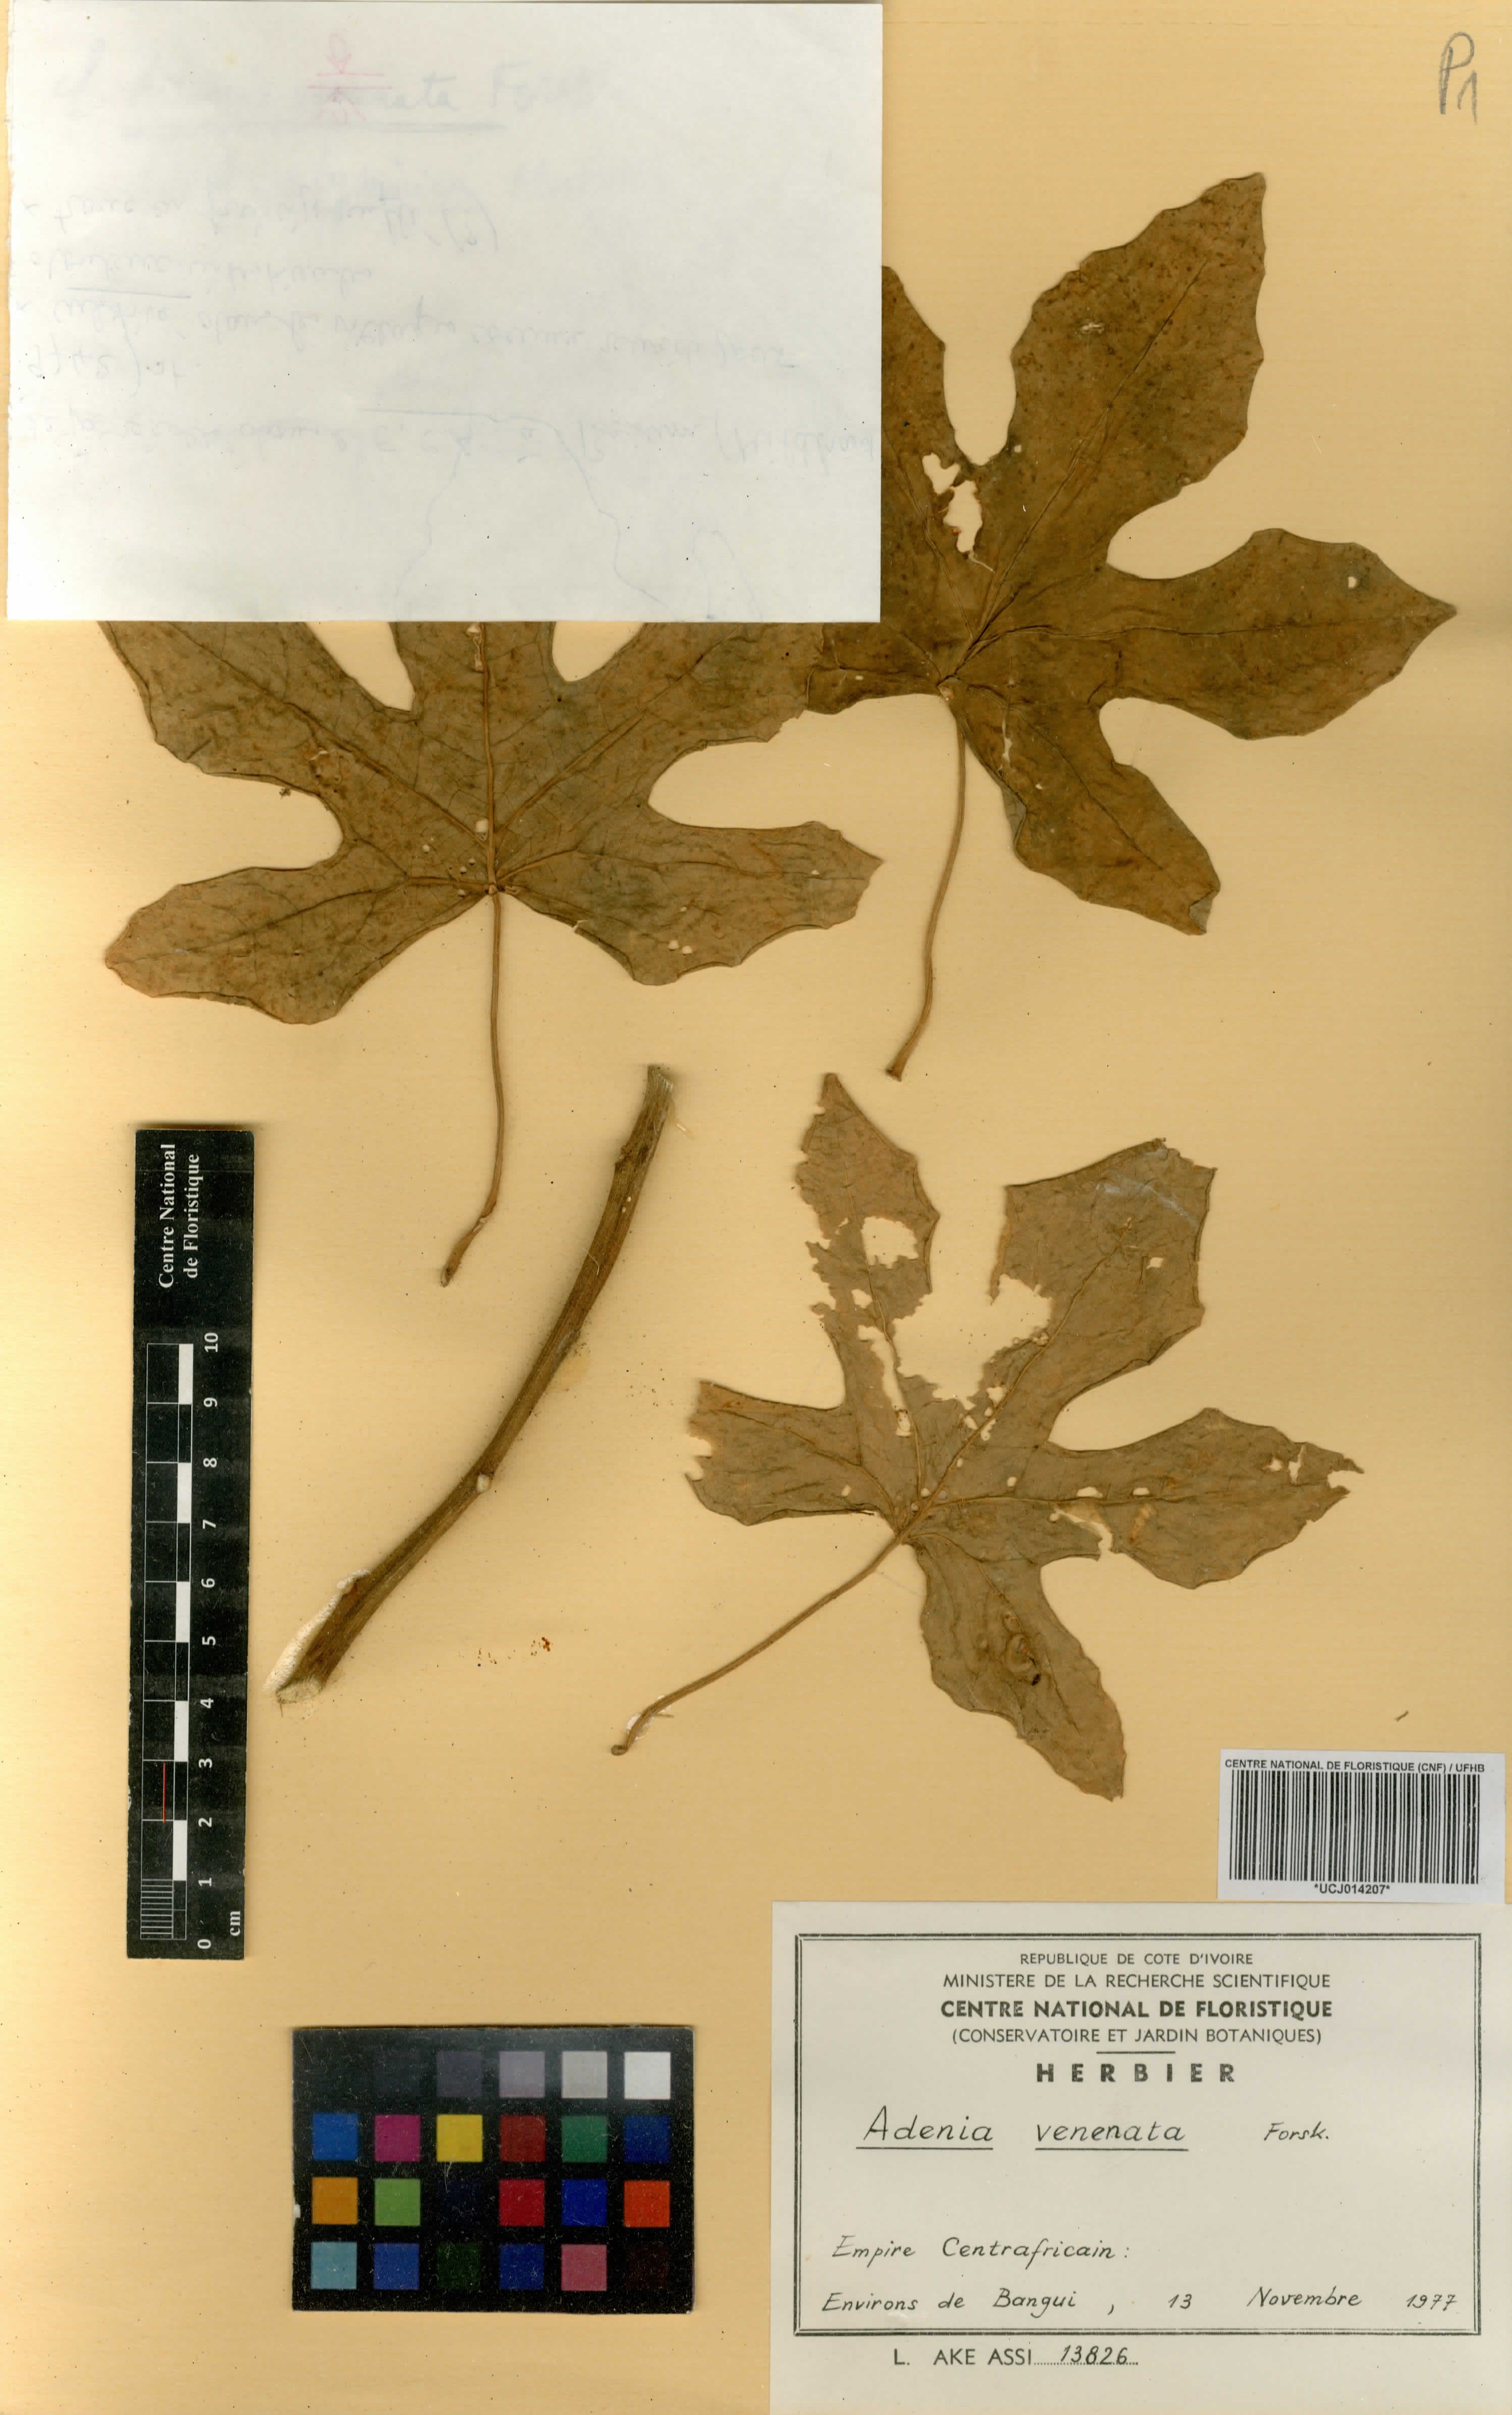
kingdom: Plantae
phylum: Tracheophyta
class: Magnoliopsida
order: Malpighiales
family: Passifloraceae
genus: Adenia
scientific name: Adenia venenata
